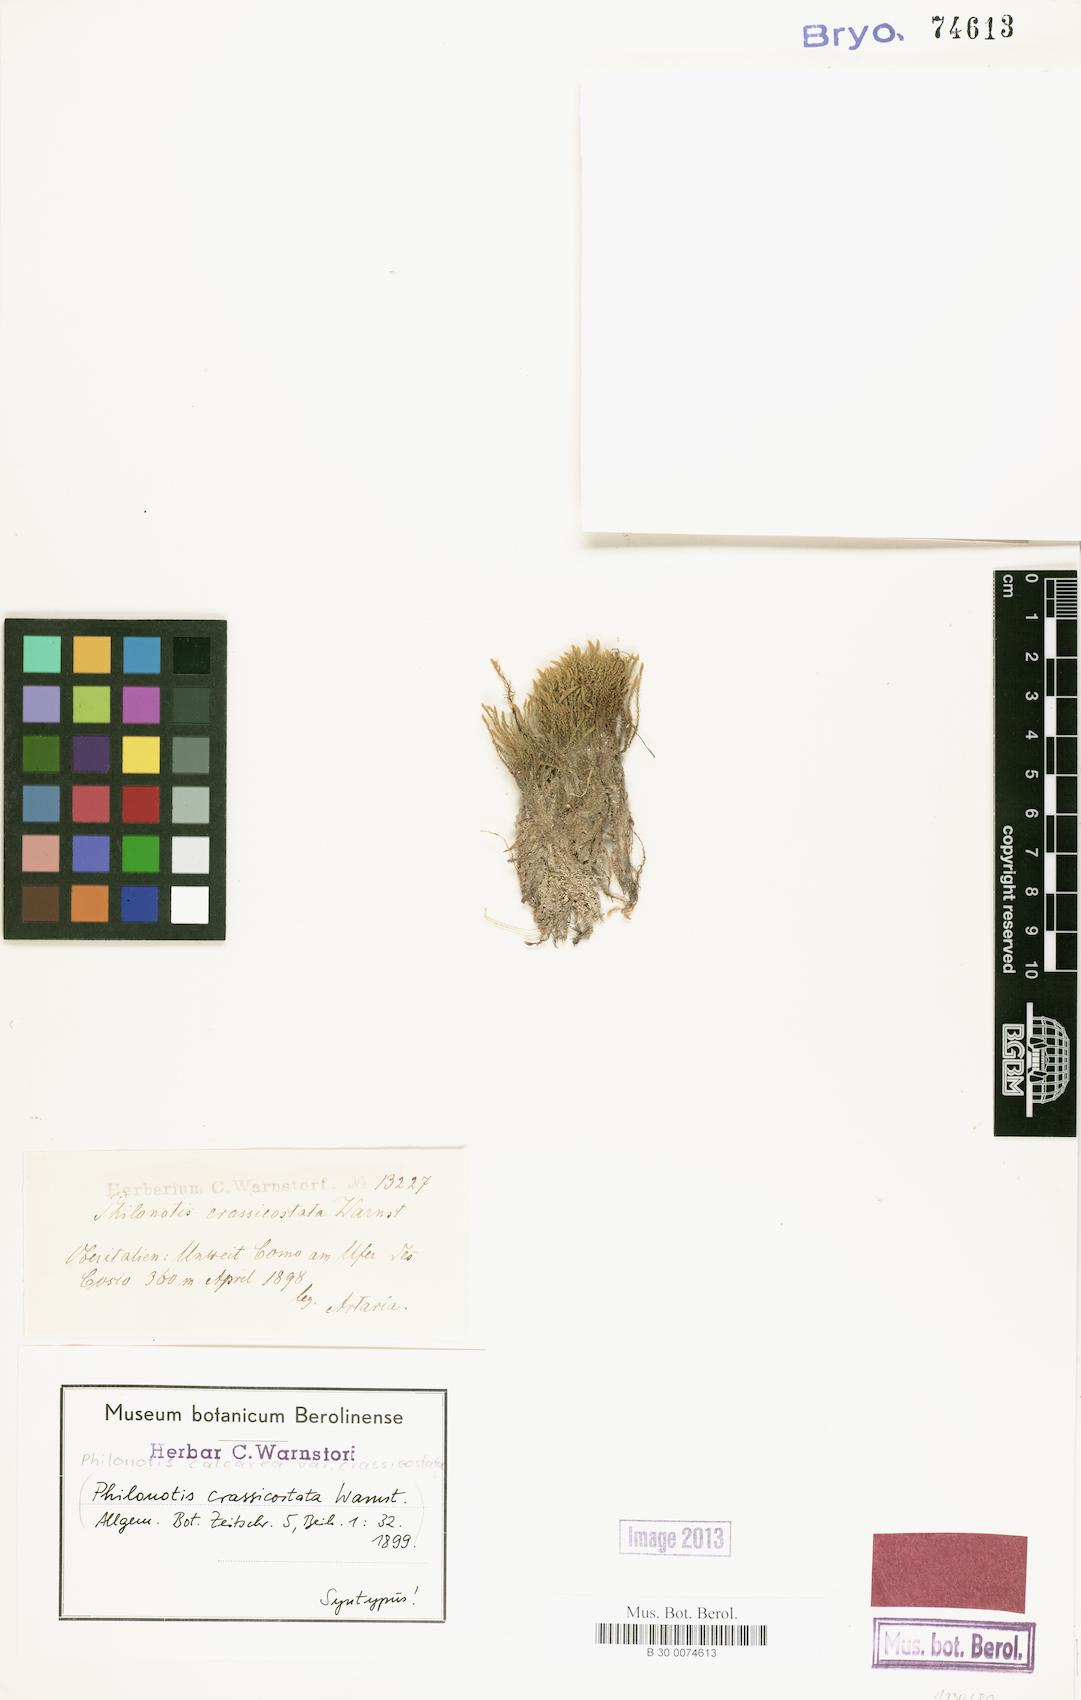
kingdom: Plantae
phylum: Bryophyta
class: Bryopsida
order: Bartramiales
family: Bartramiaceae
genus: Philonotis
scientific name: Philonotis calcarea
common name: Thick-nerved apple-moss
